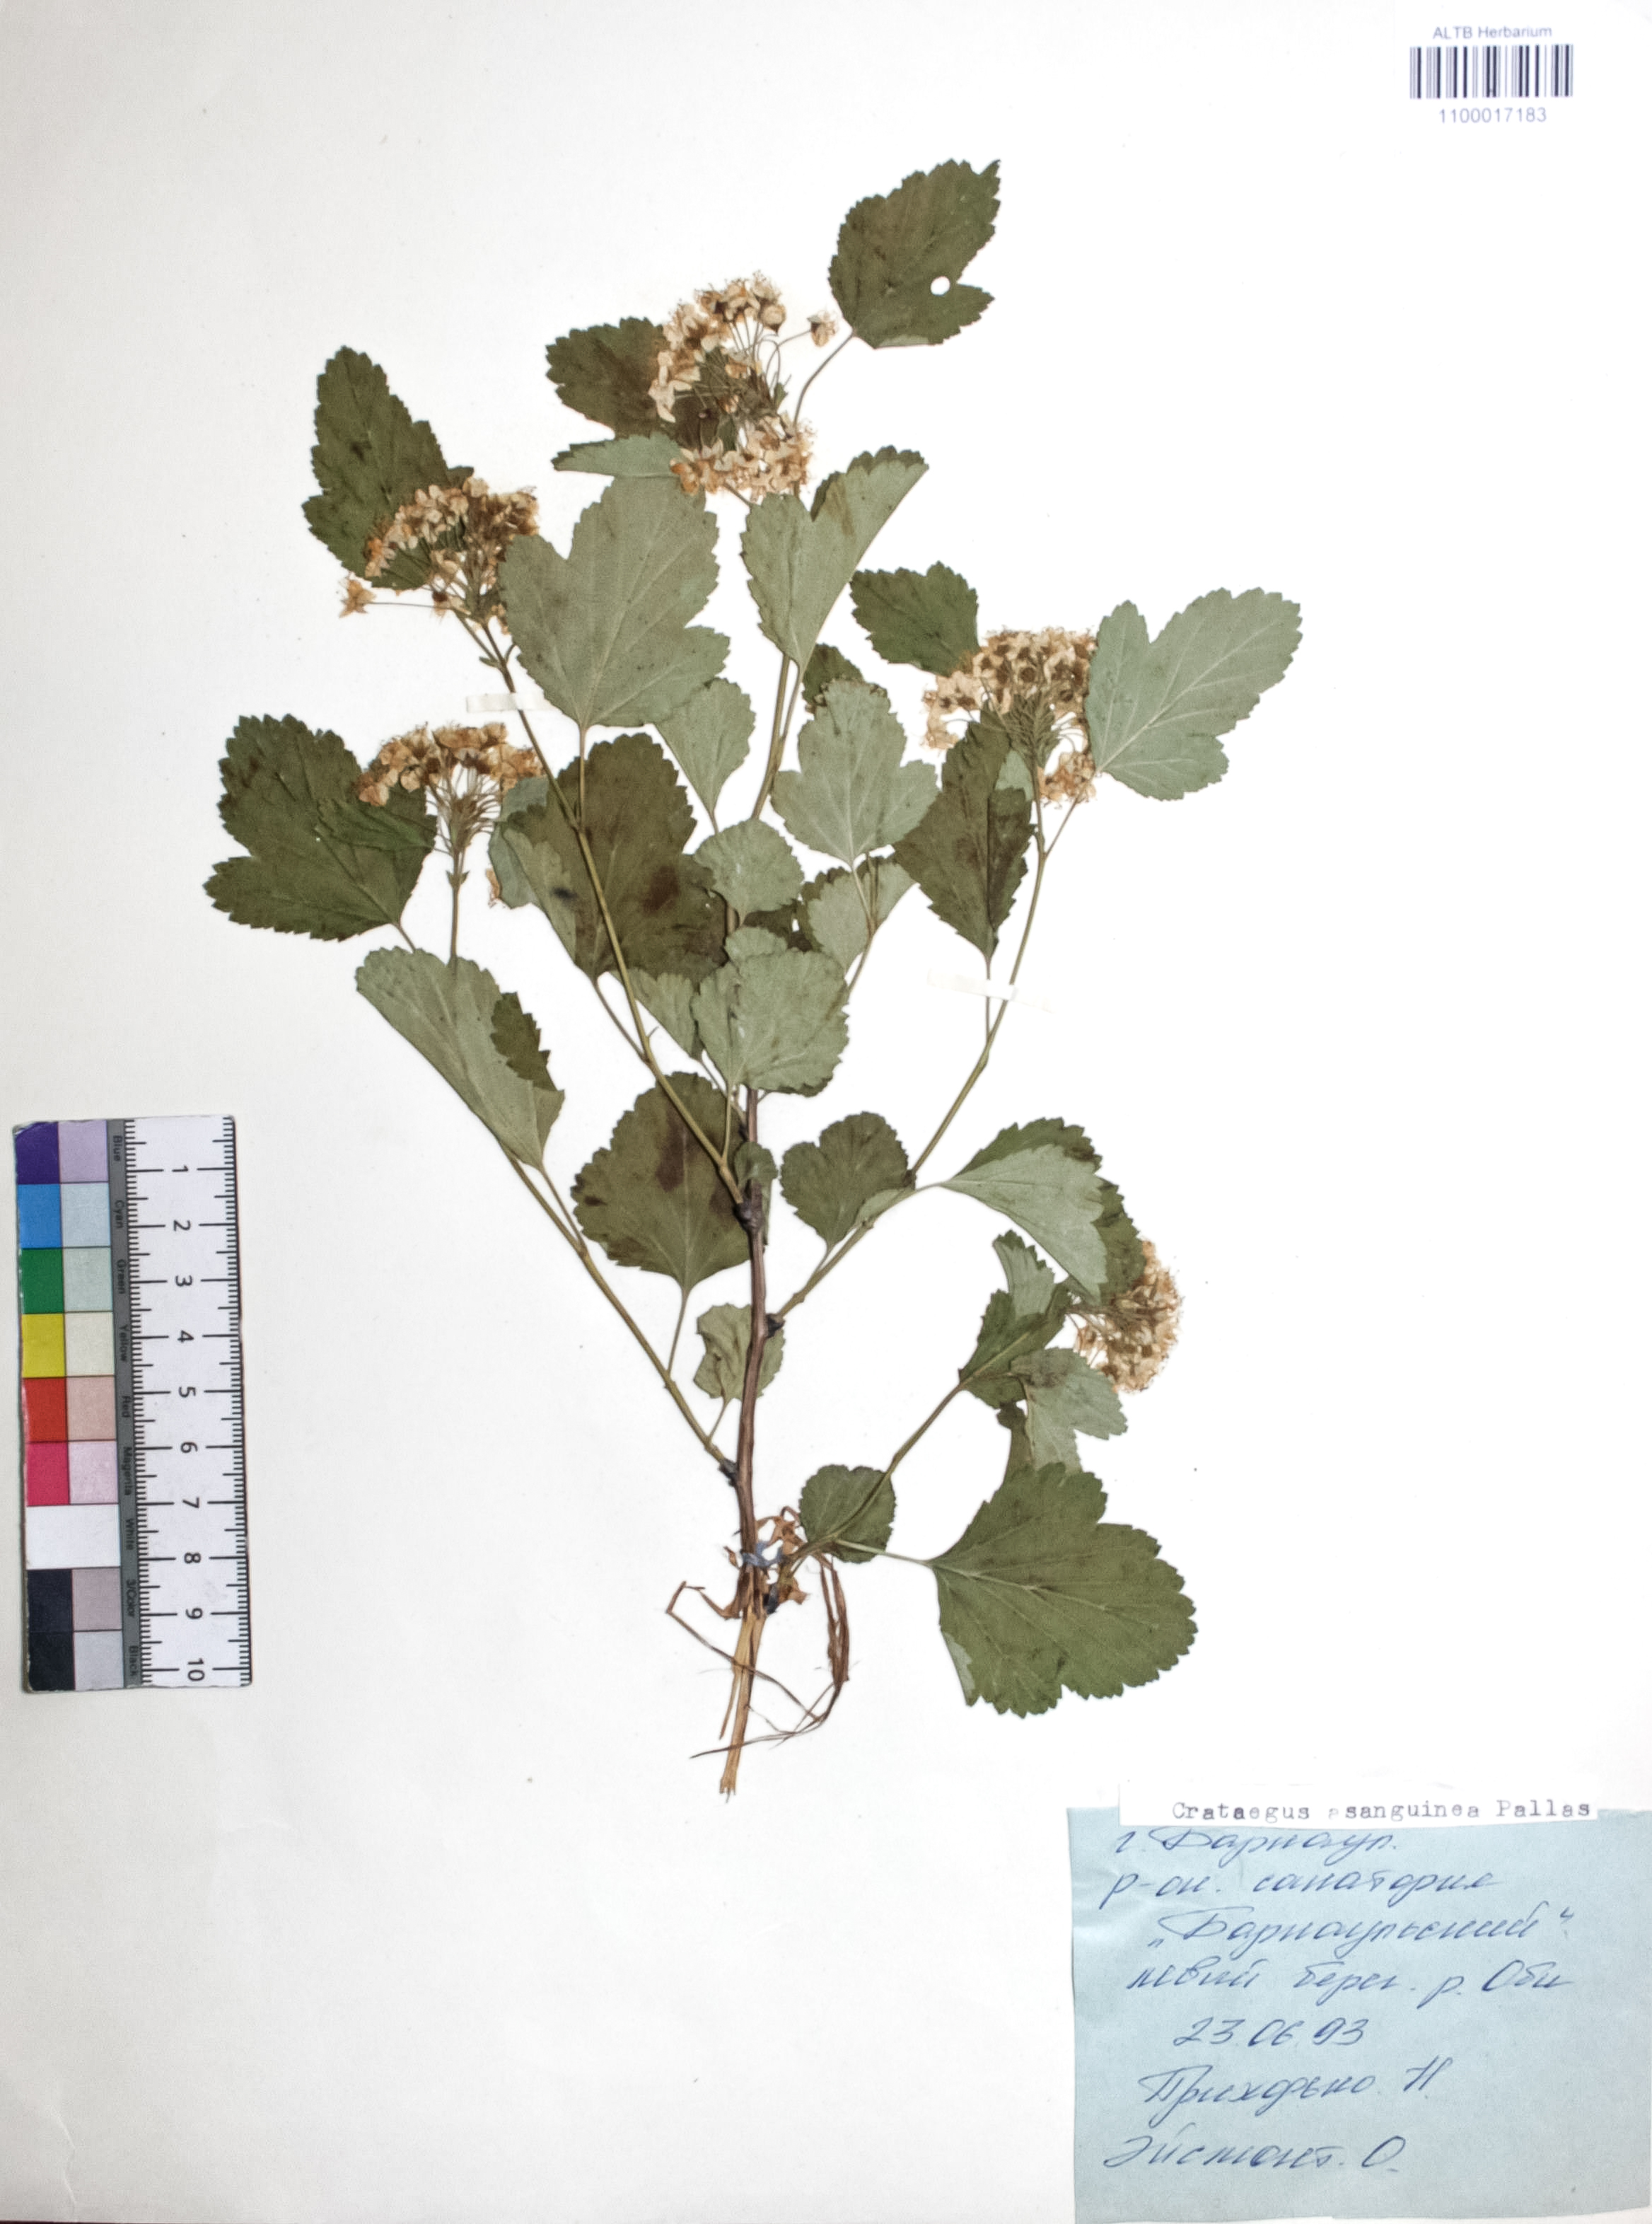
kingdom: Plantae
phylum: Tracheophyta
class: Magnoliopsida
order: Rosales
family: Rosaceae
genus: Crataegus
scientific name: Crataegus sanguinea
